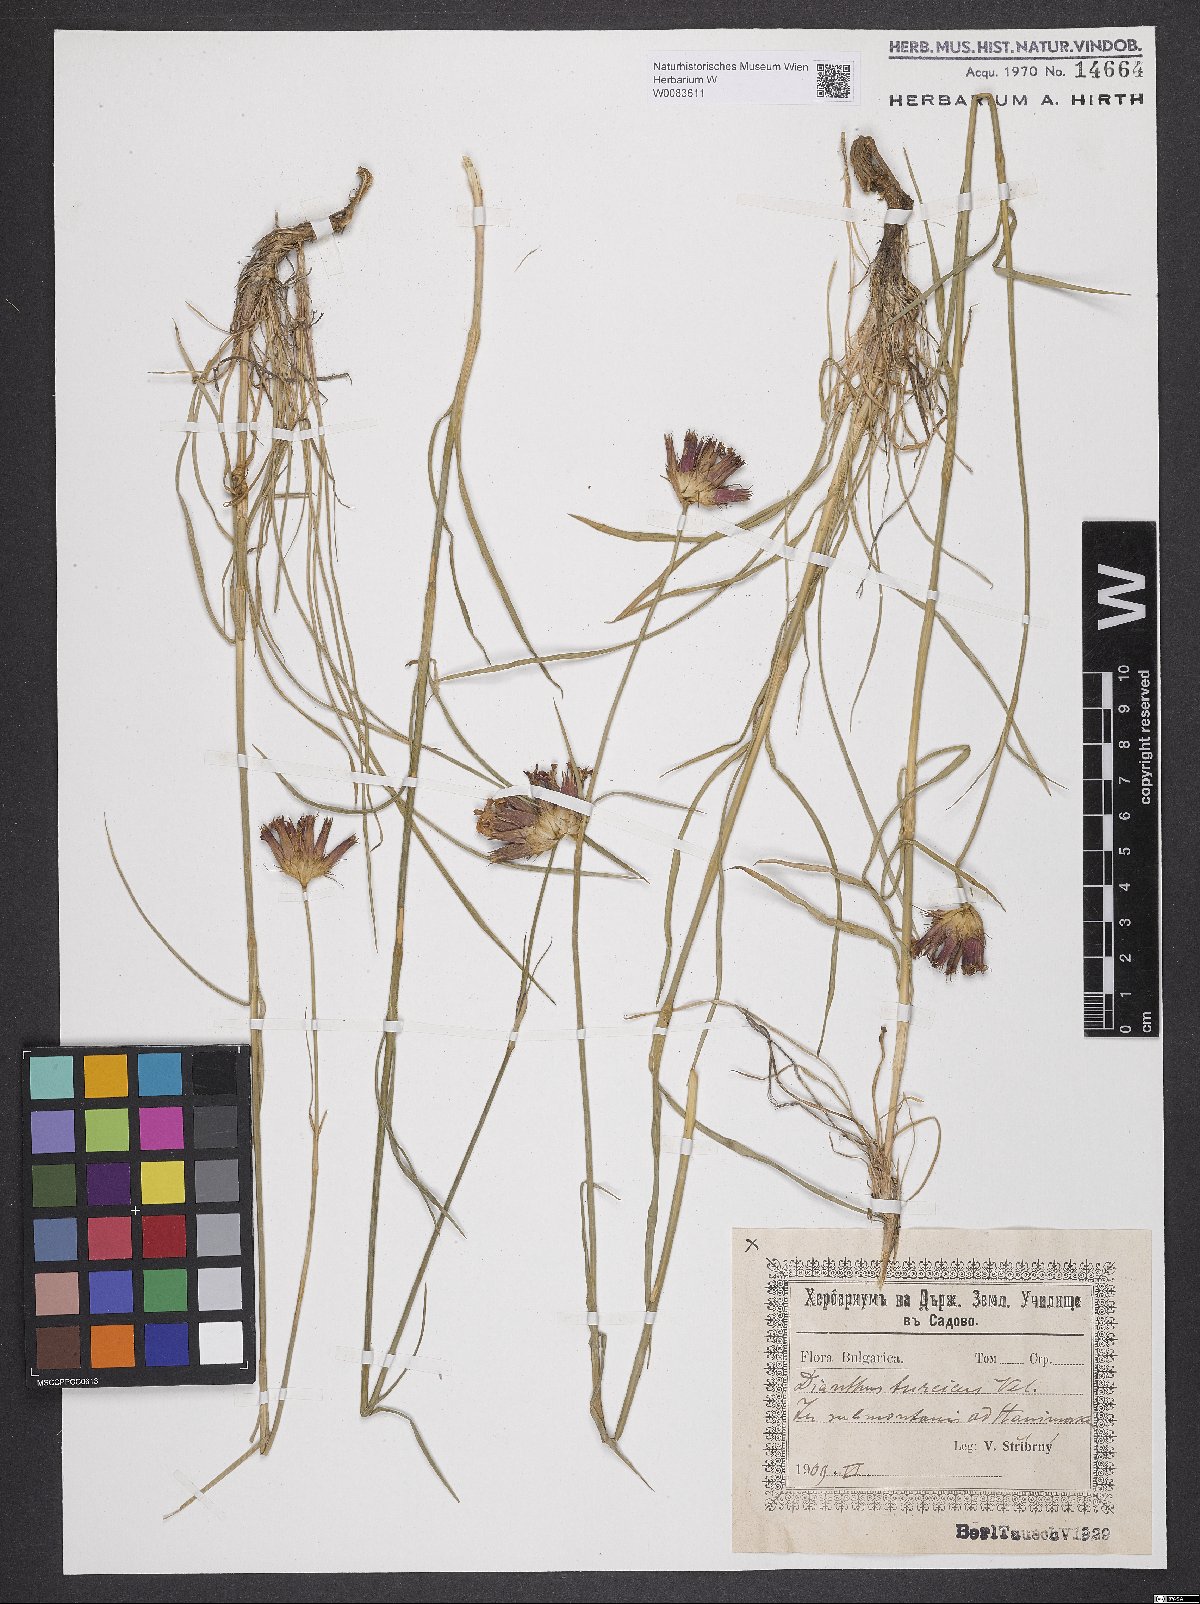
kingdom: Plantae
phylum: Tracheophyta
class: Magnoliopsida
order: Caryophyllales
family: Caryophyllaceae
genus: Dianthus
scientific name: Dianthus cruentus
